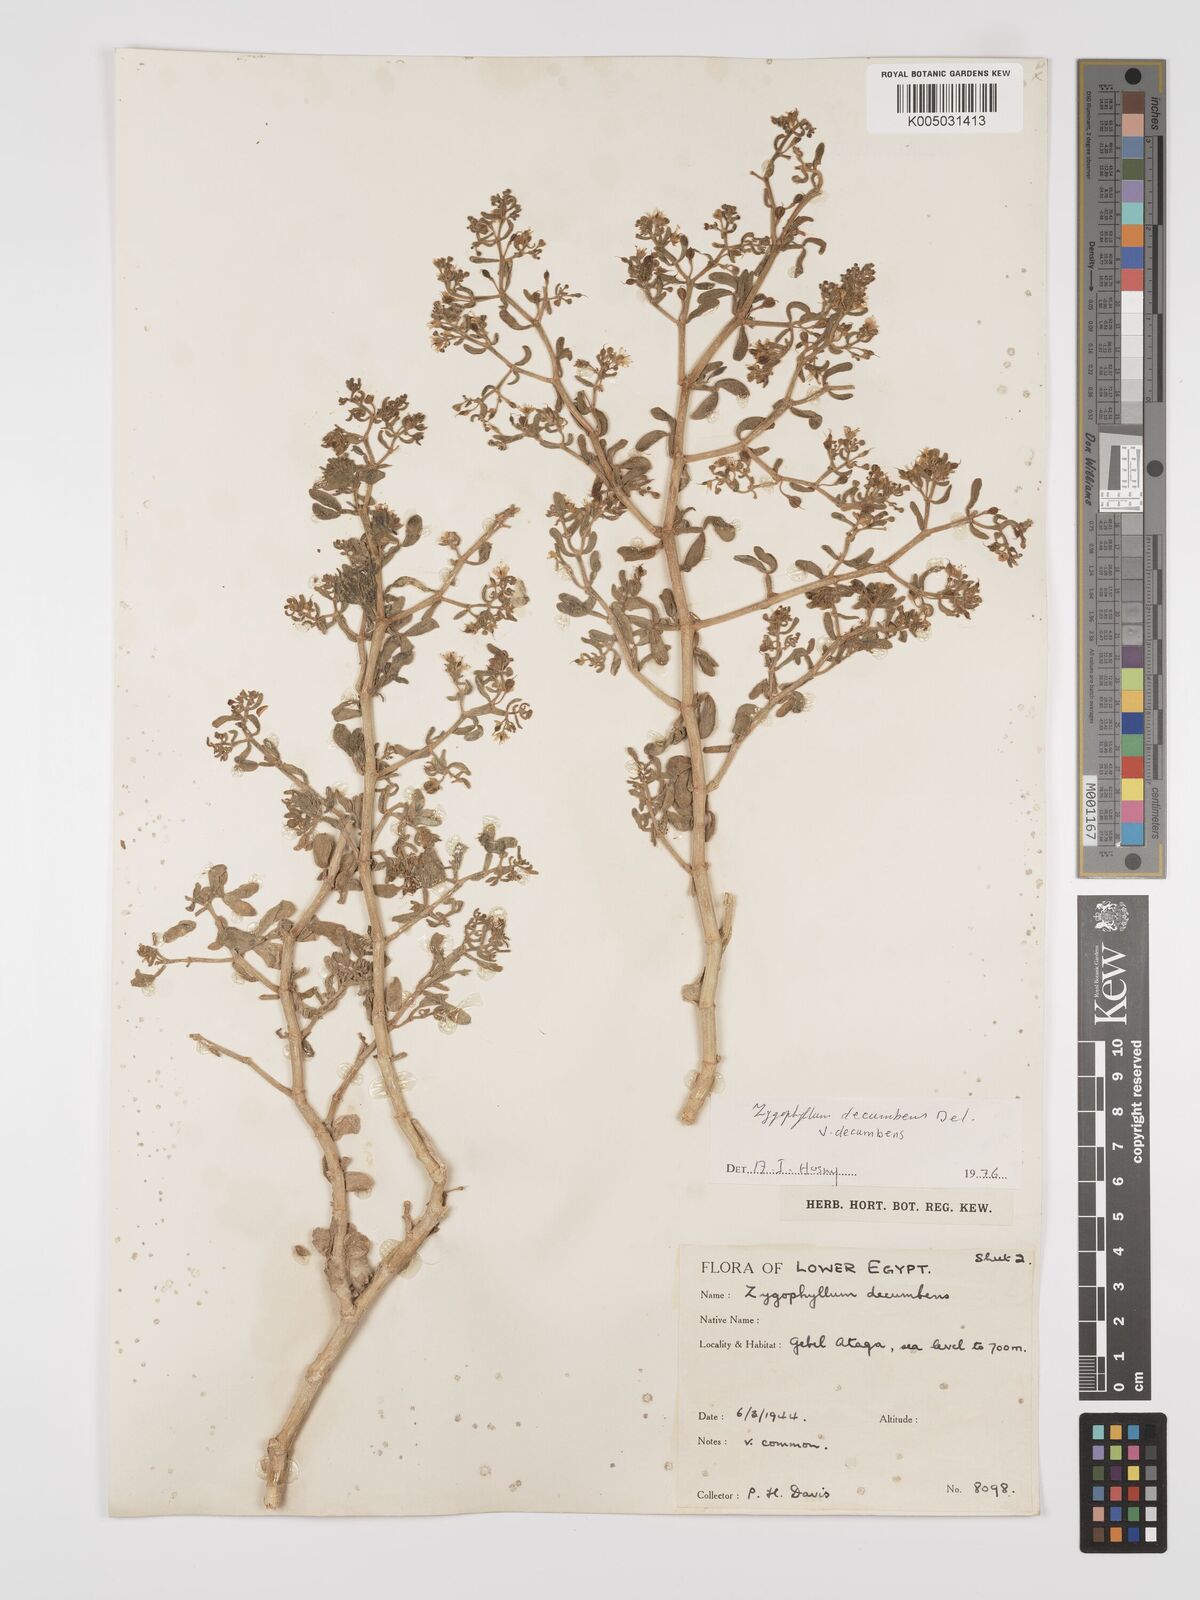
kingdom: Plantae
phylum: Tracheophyta
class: Magnoliopsida
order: Zygophyllales
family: Zygophyllaceae
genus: Tetraena
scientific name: Tetraena decumbens
